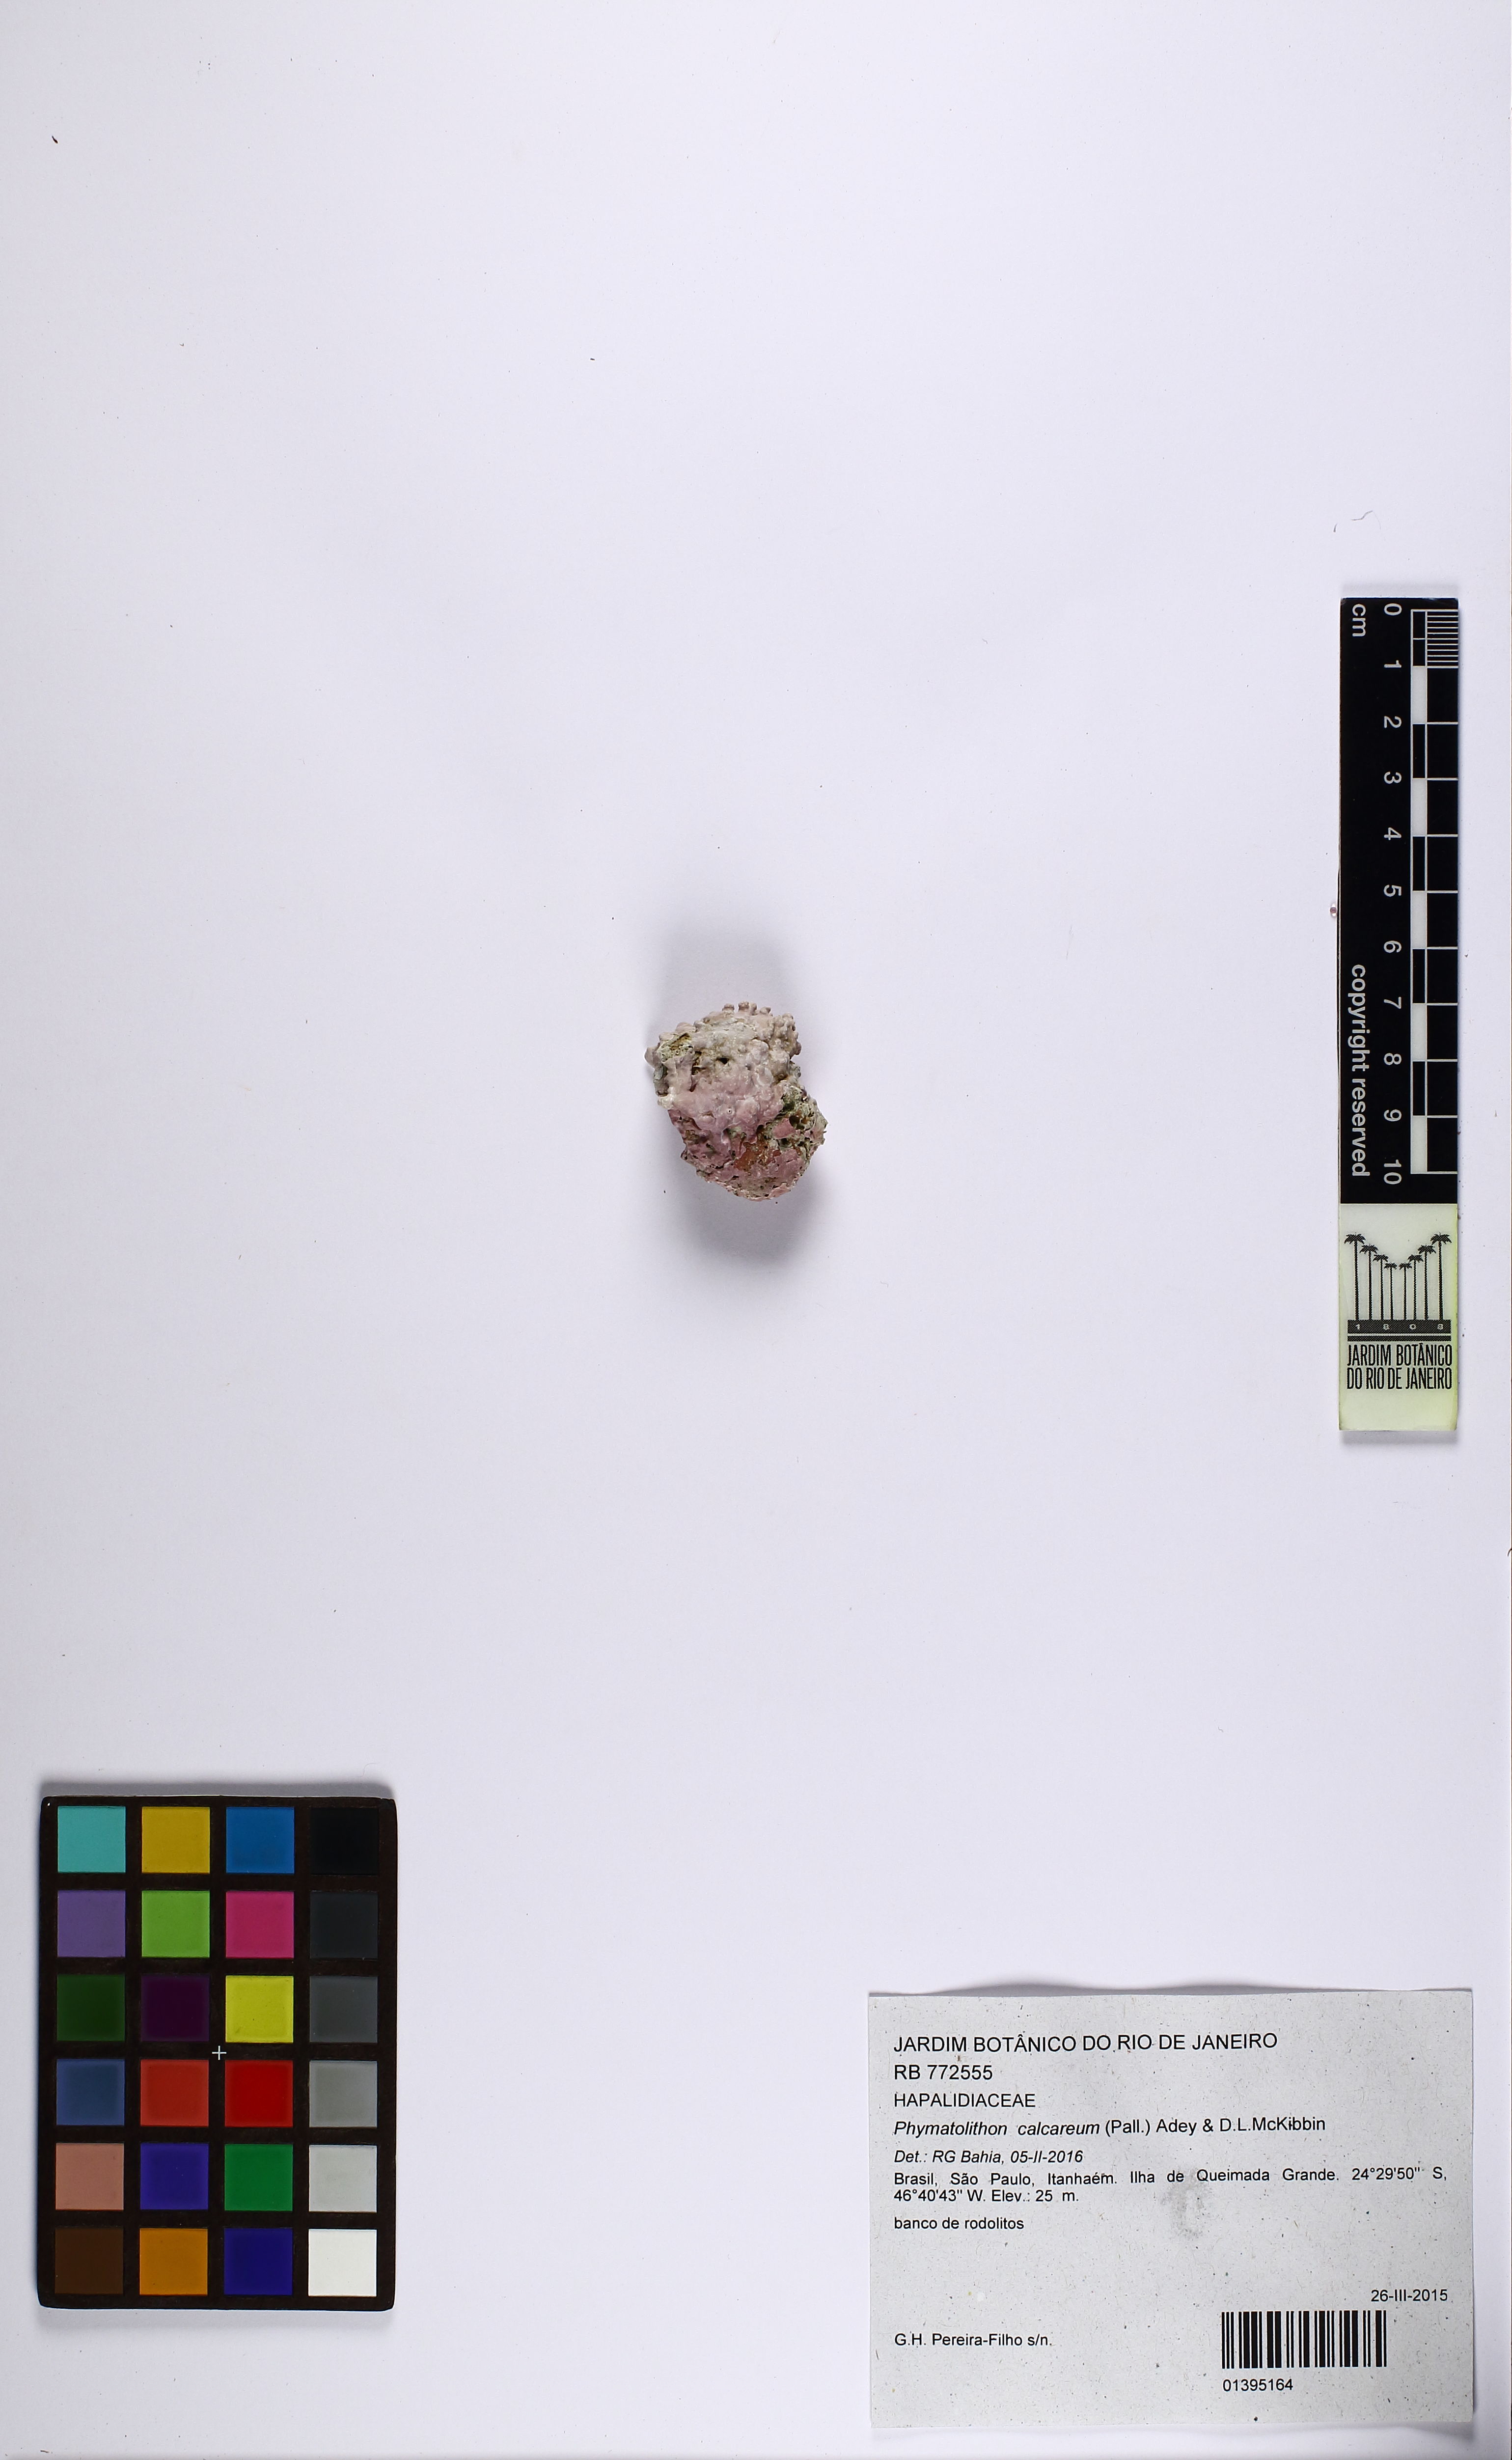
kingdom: Plantae
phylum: Rhodophyta
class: Florideophyceae
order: Corallinales
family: Hapalidiaceae
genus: Phymatolithon
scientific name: Phymatolithon calcareum
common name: Common maërl
